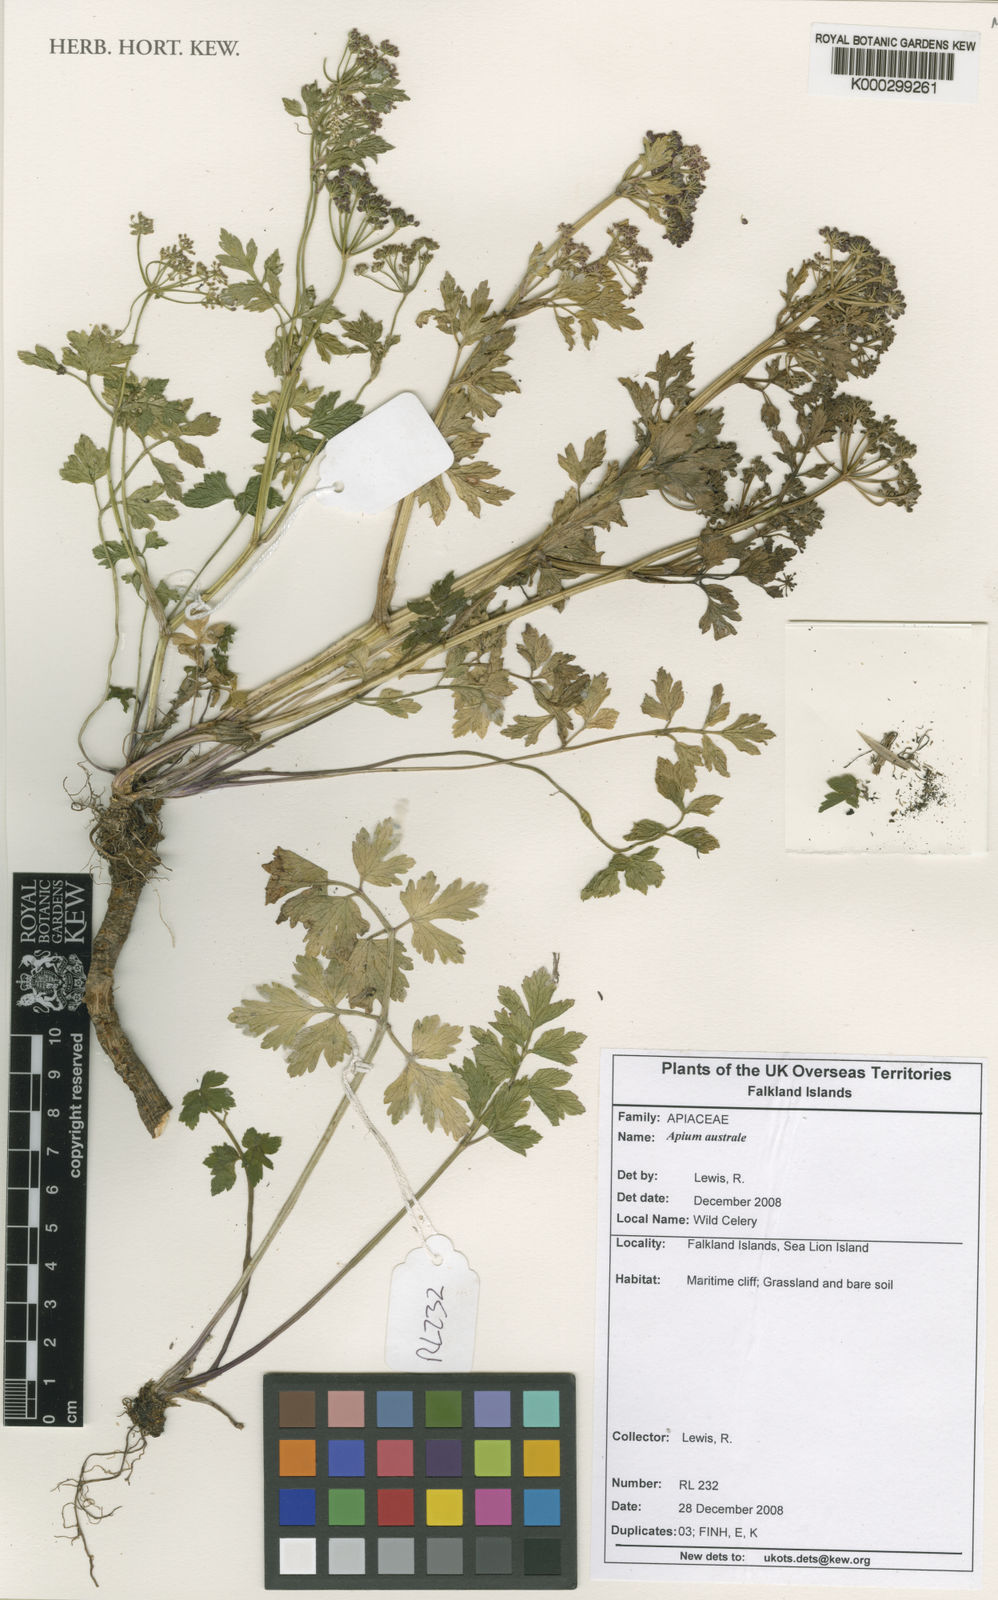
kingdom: Plantae
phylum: Tracheophyta
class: Magnoliopsida
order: Apiales
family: Apiaceae
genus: Apium
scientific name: Apium
